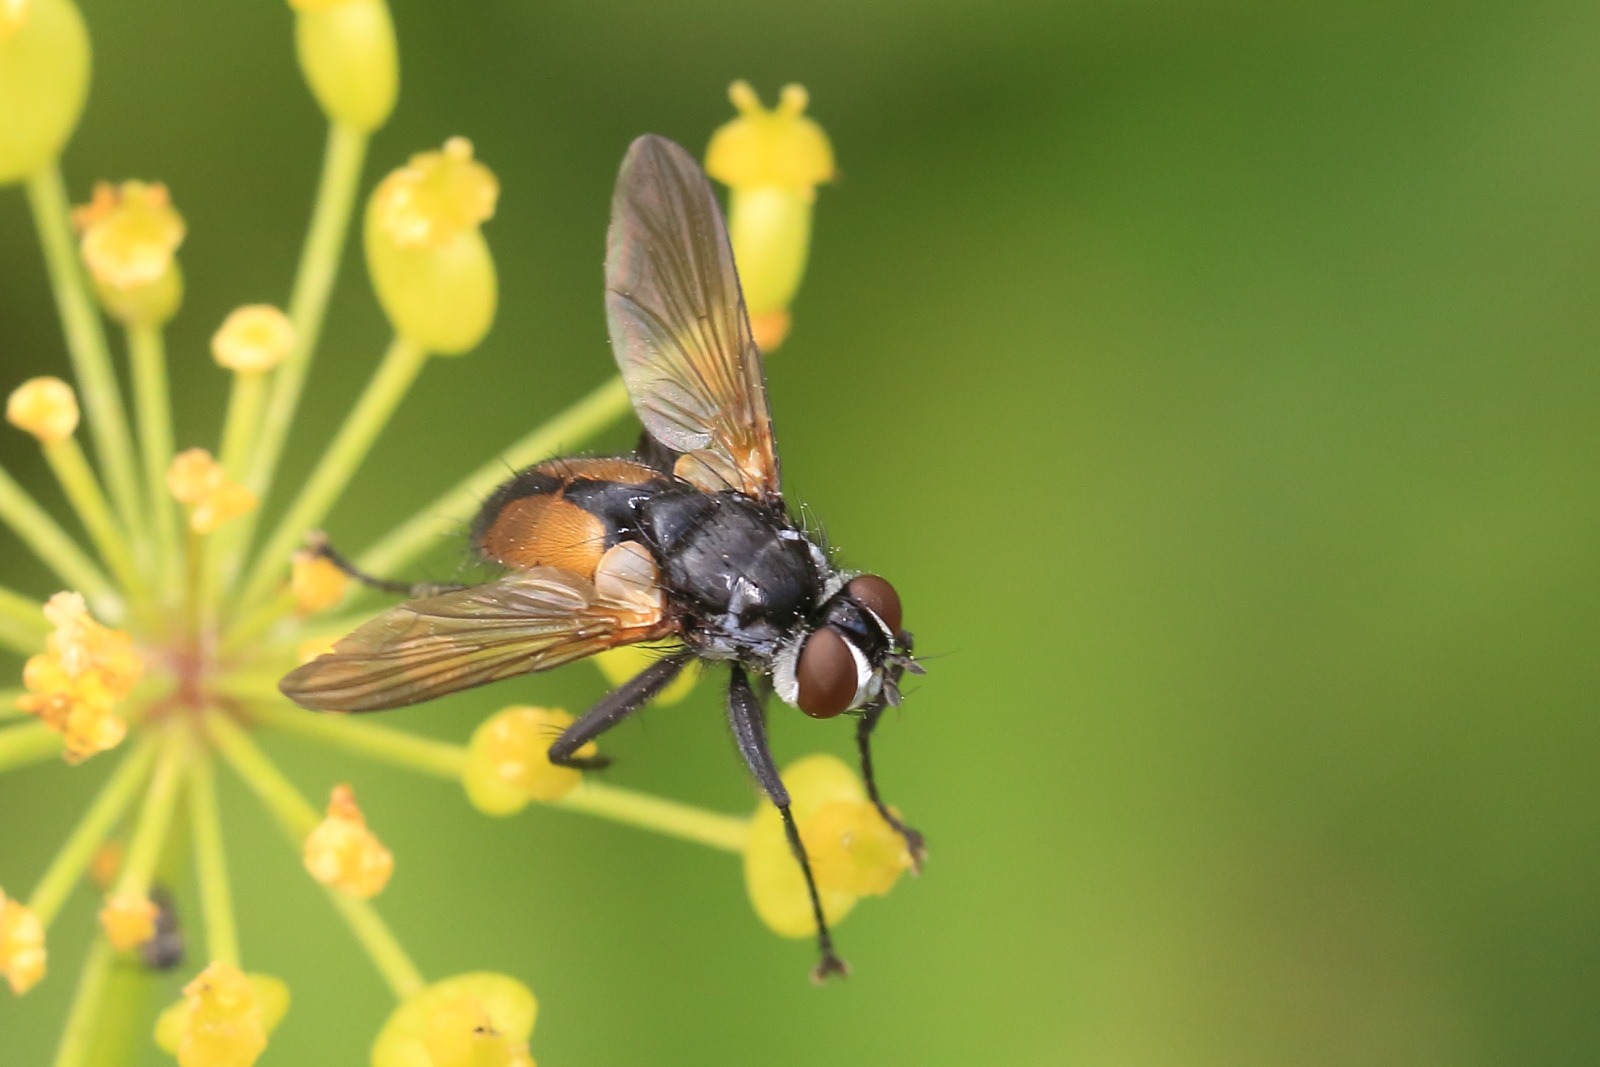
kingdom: Animalia
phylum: Arthropoda
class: Insecta
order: Diptera
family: Tachinidae
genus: Hemyda
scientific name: Hemyda vittata
